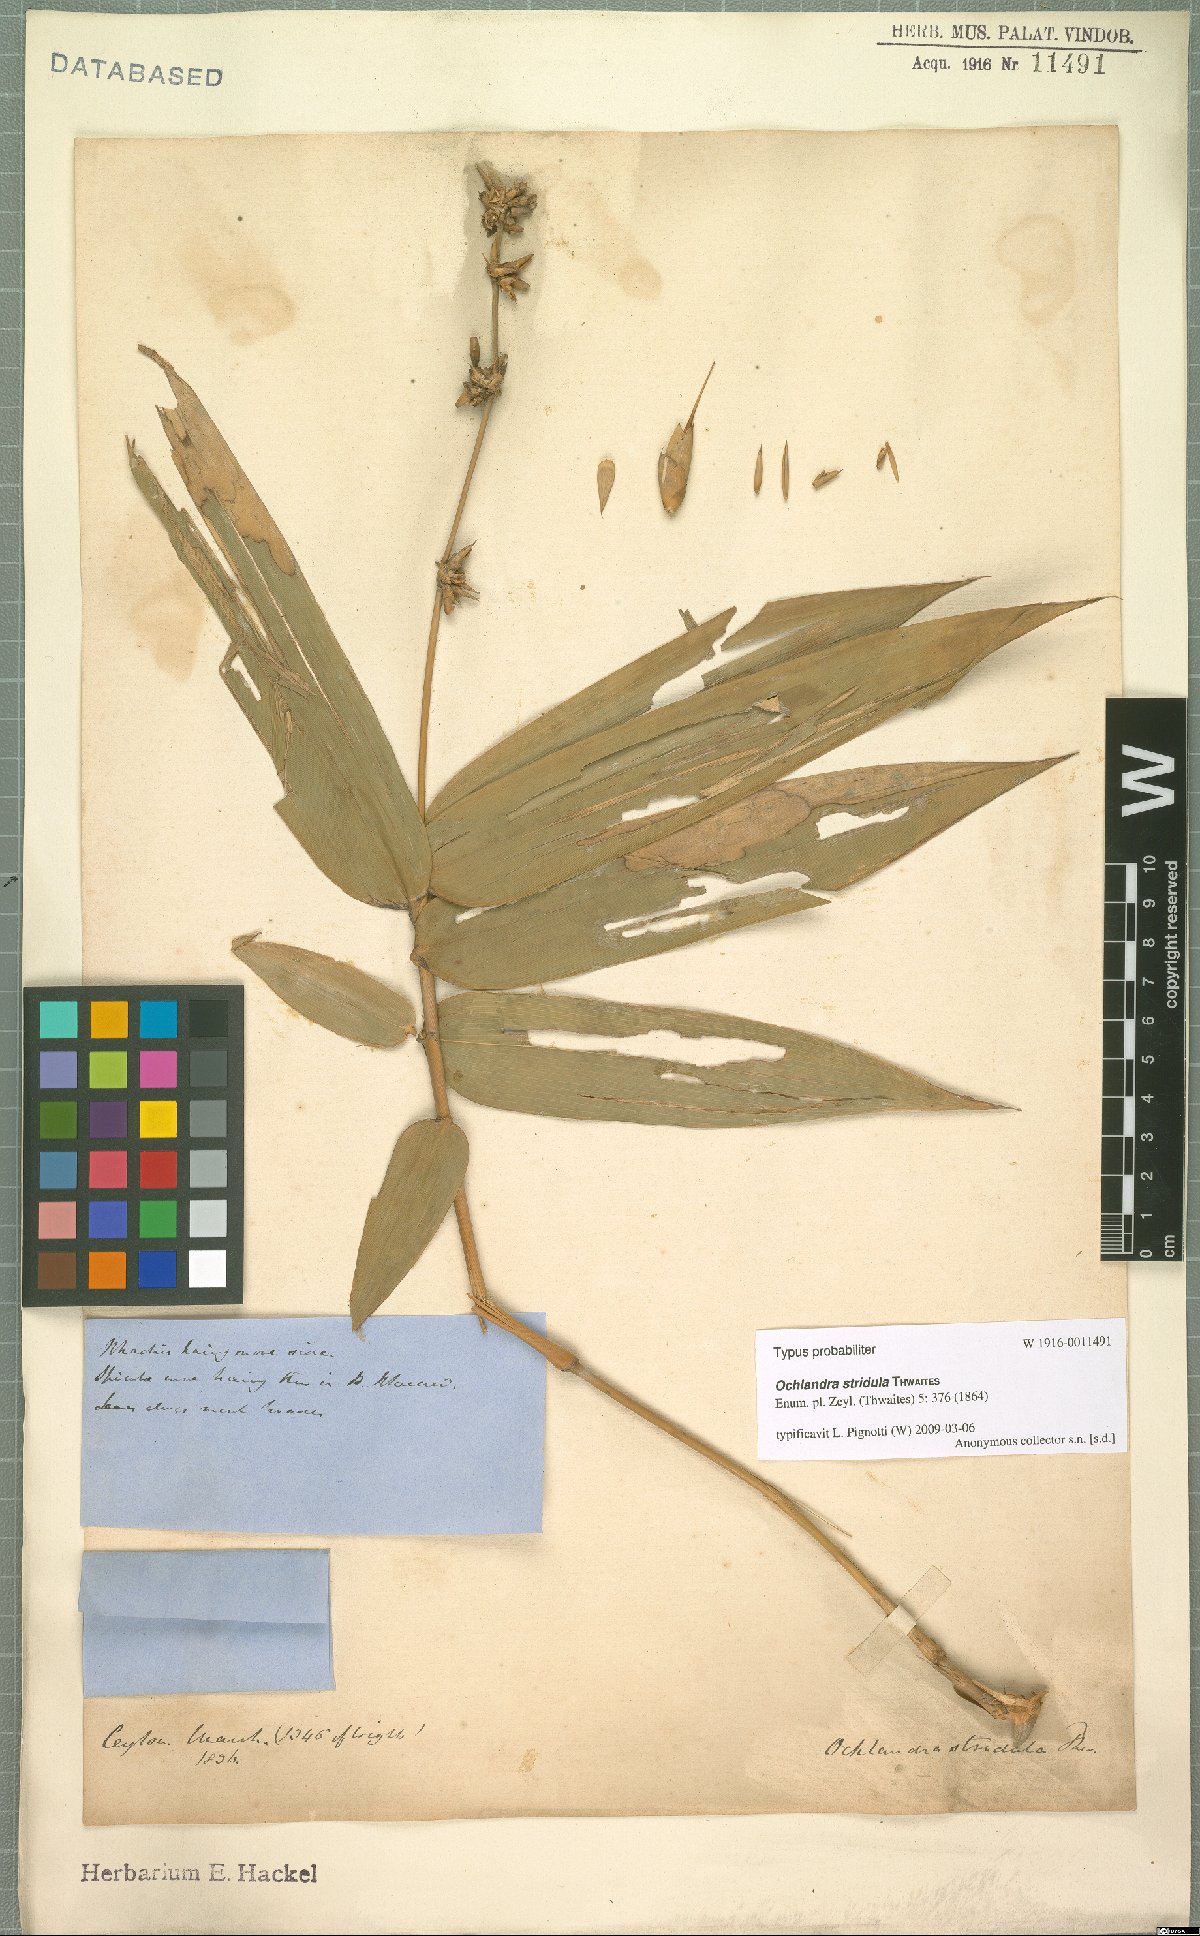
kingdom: Plantae
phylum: Tracheophyta
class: Liliopsida
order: Poales
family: Poaceae
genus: Ochlandra
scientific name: Ochlandra stridula
